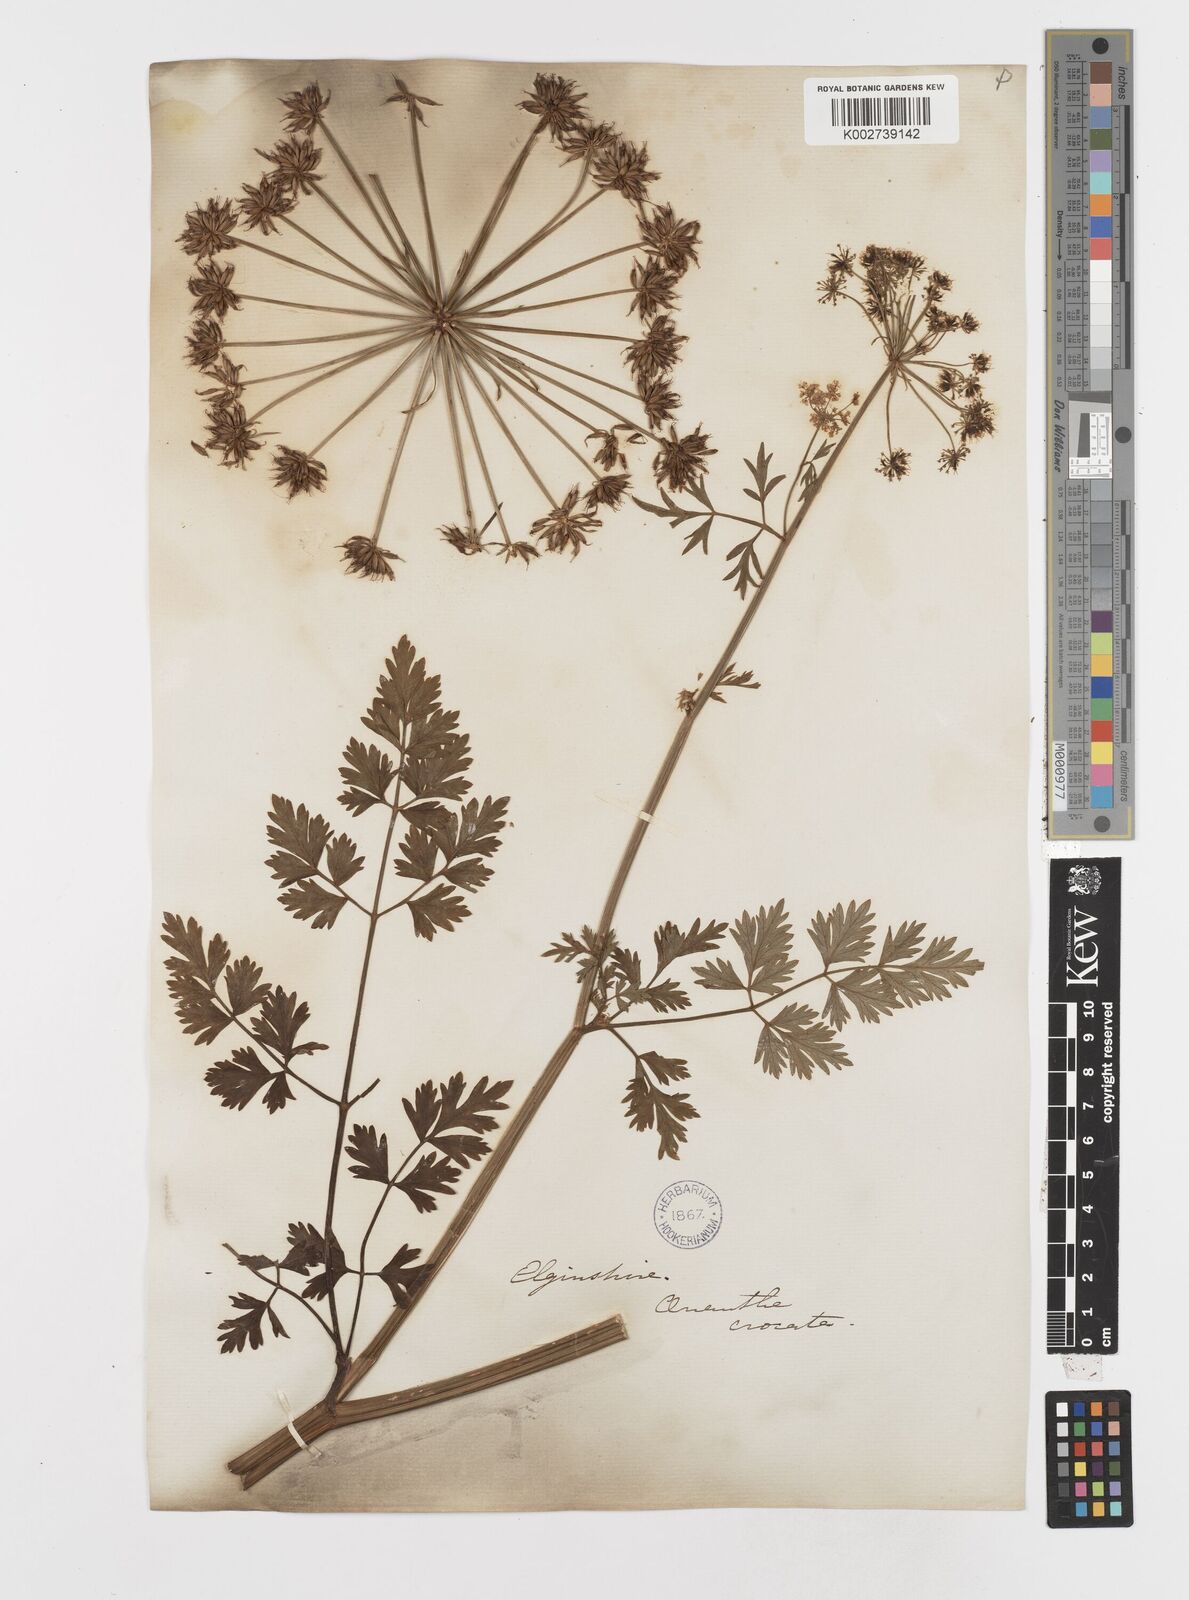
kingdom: Plantae
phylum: Tracheophyta
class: Magnoliopsida
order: Apiales
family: Apiaceae
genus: Oenanthe
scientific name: Oenanthe crocata
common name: Hemlock water-dropwort
